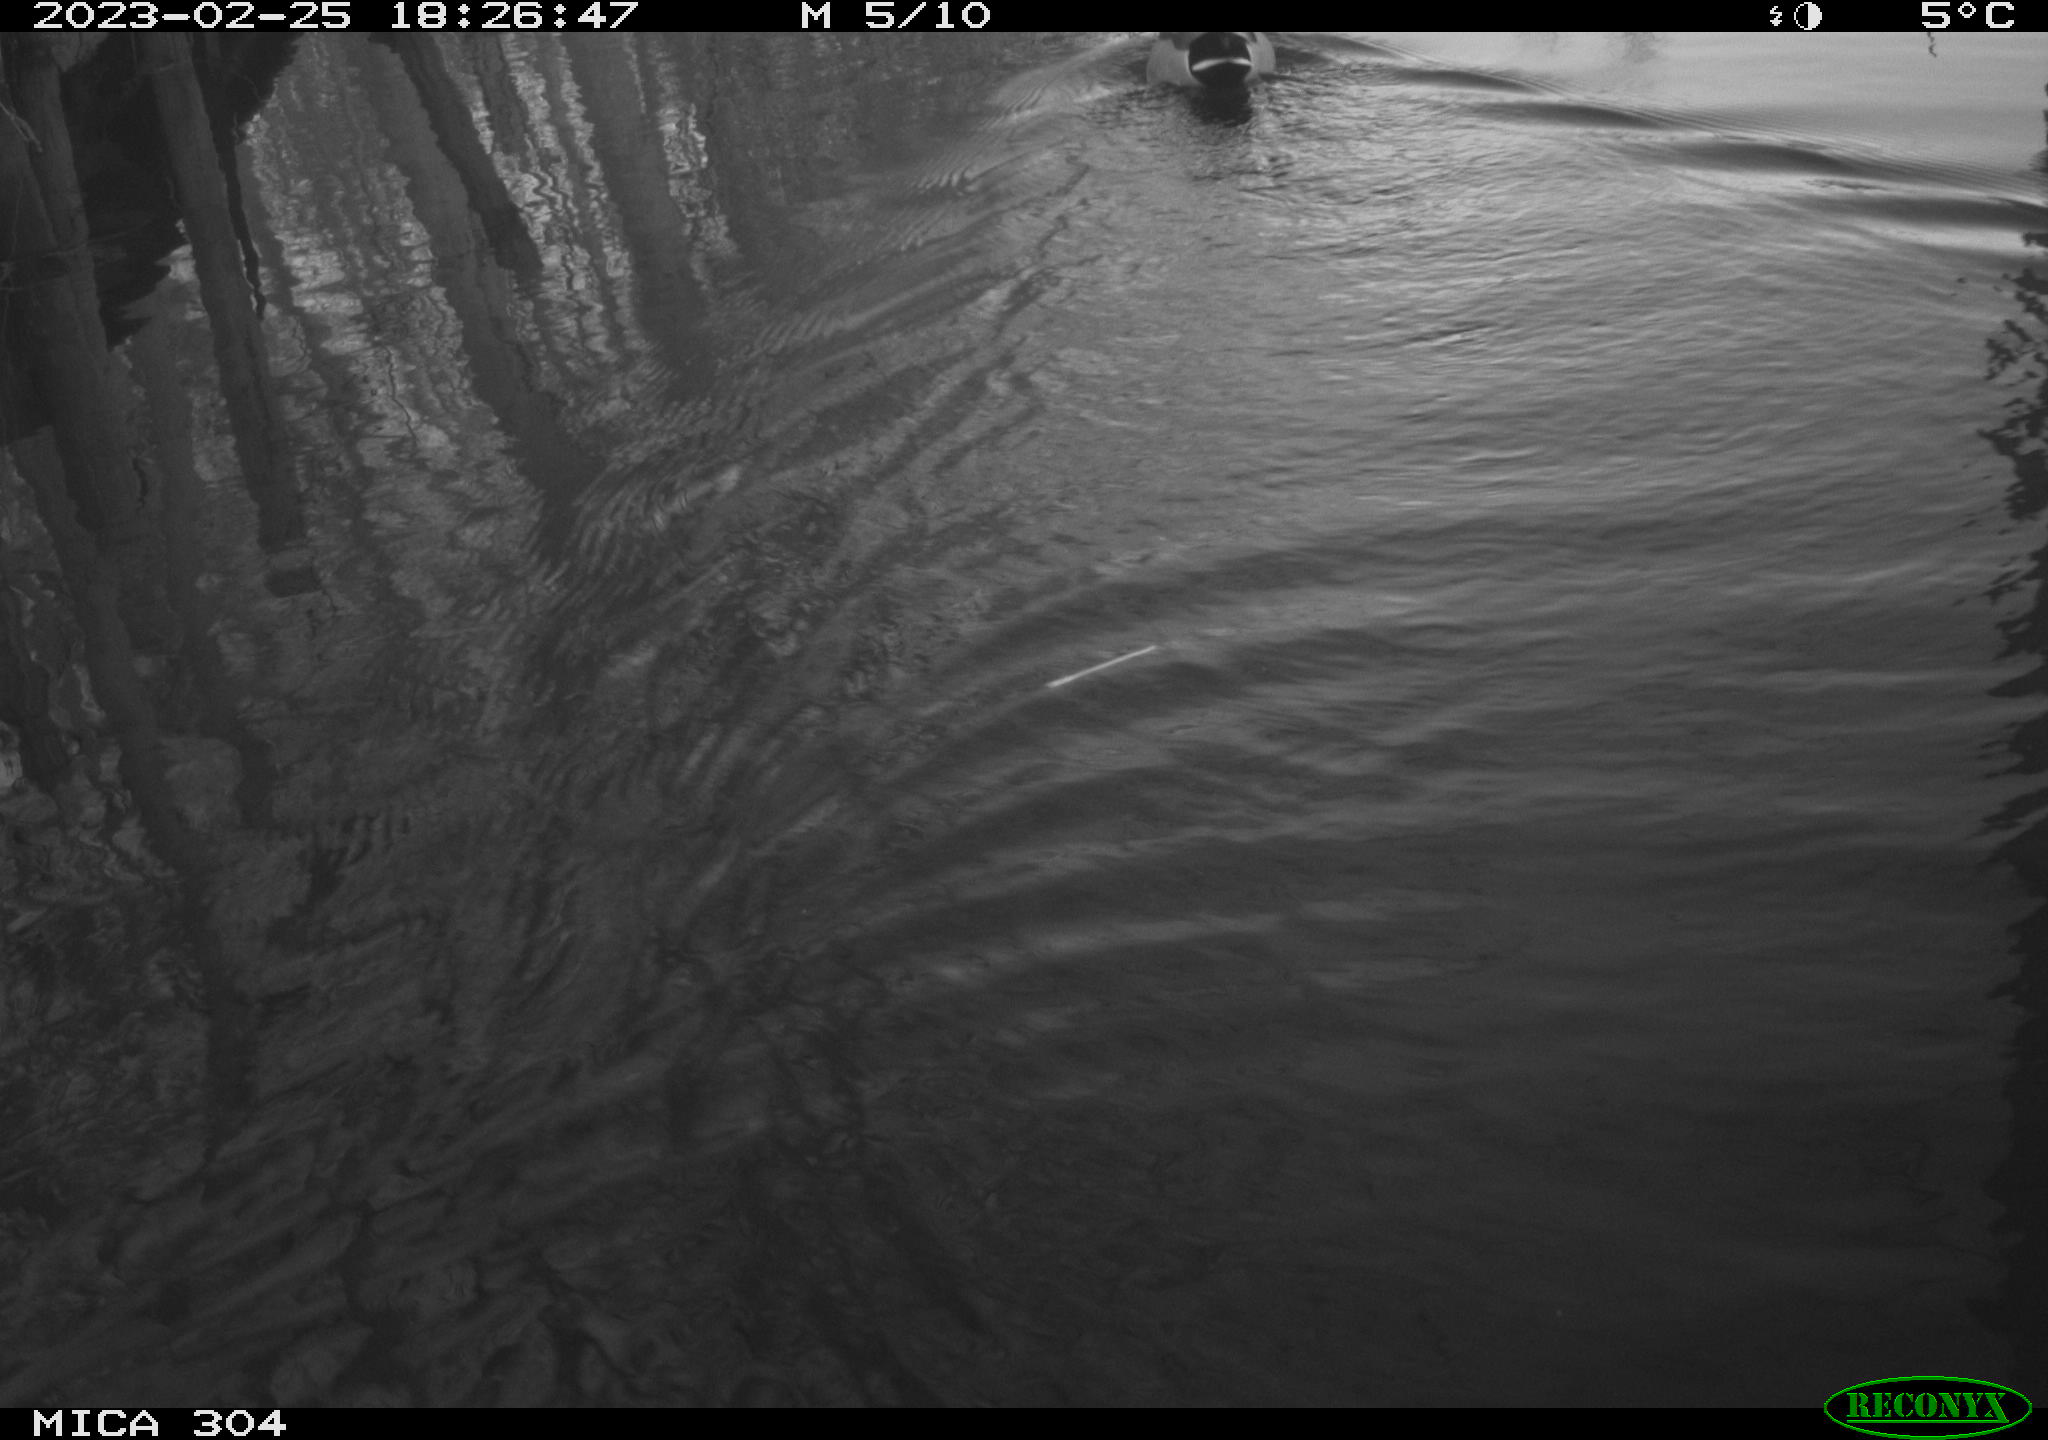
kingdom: Animalia
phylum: Chordata
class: Aves
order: Anseriformes
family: Anatidae
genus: Anas
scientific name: Anas
